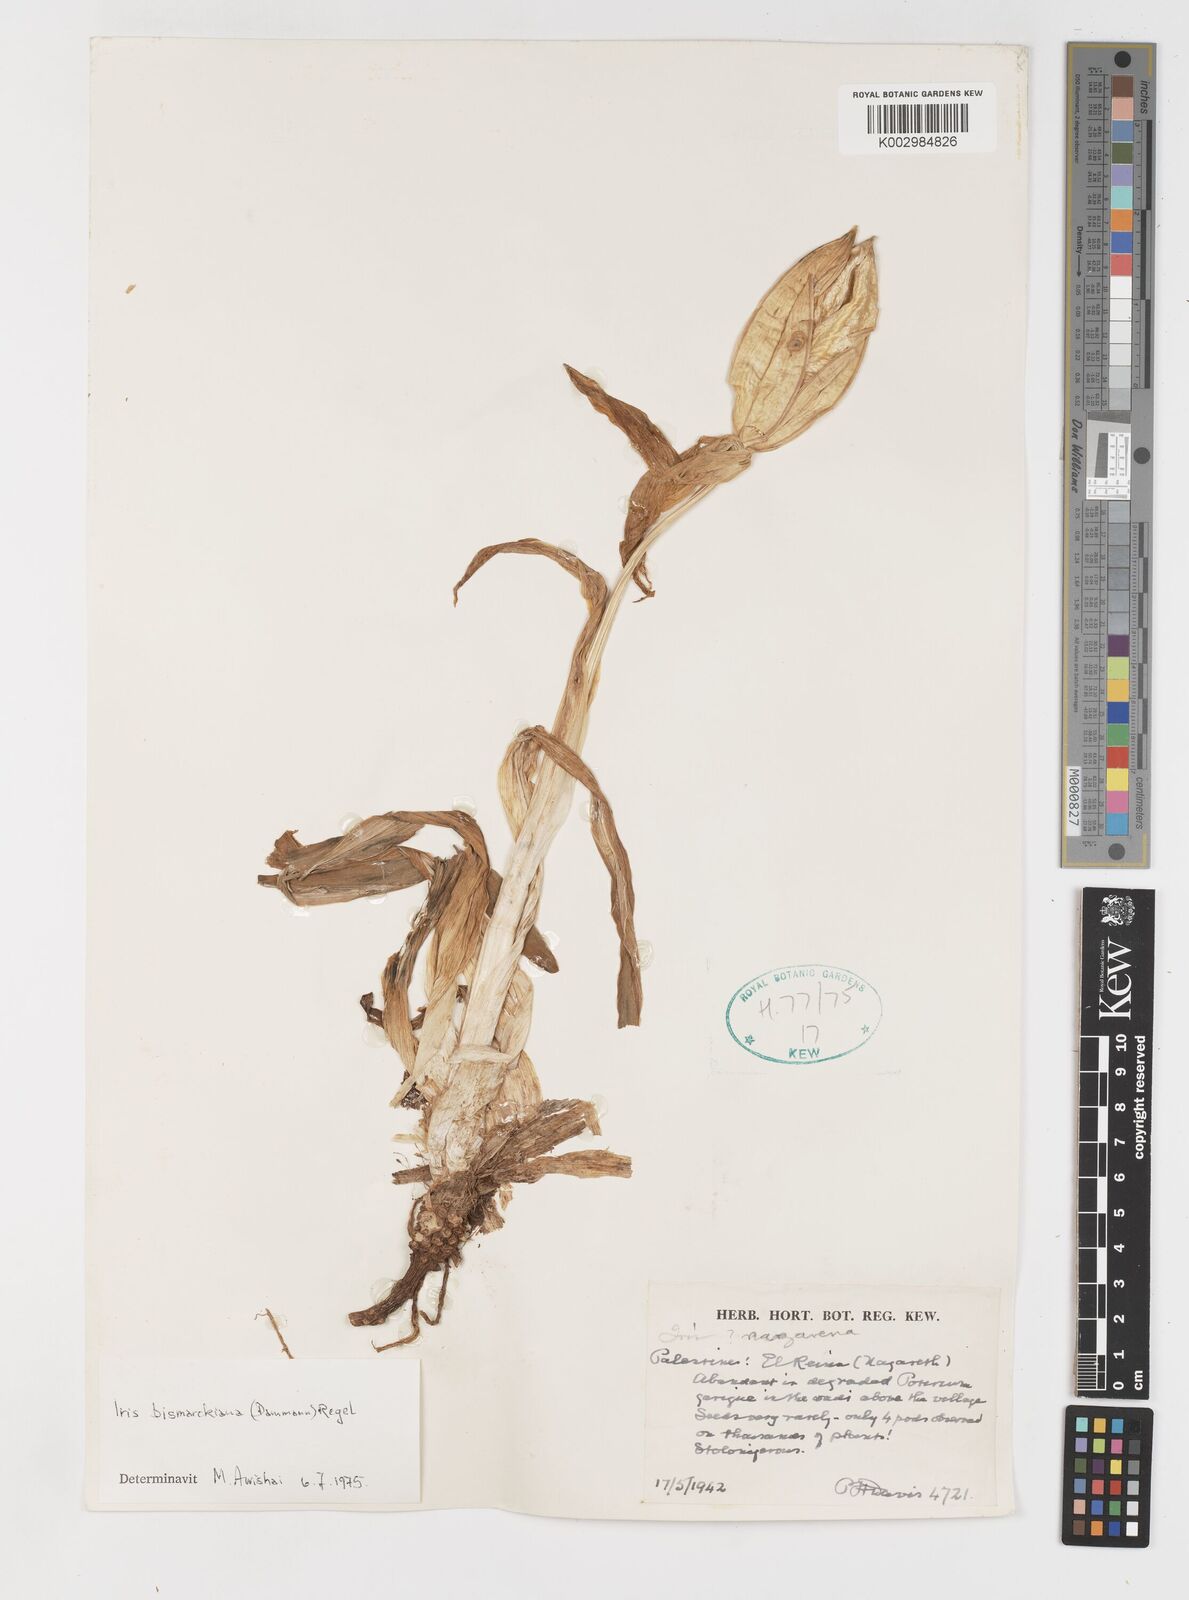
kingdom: Plantae
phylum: Tracheophyta
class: Liliopsida
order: Asparagales
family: Iridaceae
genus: Iris
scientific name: Iris bismarckiana
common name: Nazareth iris
